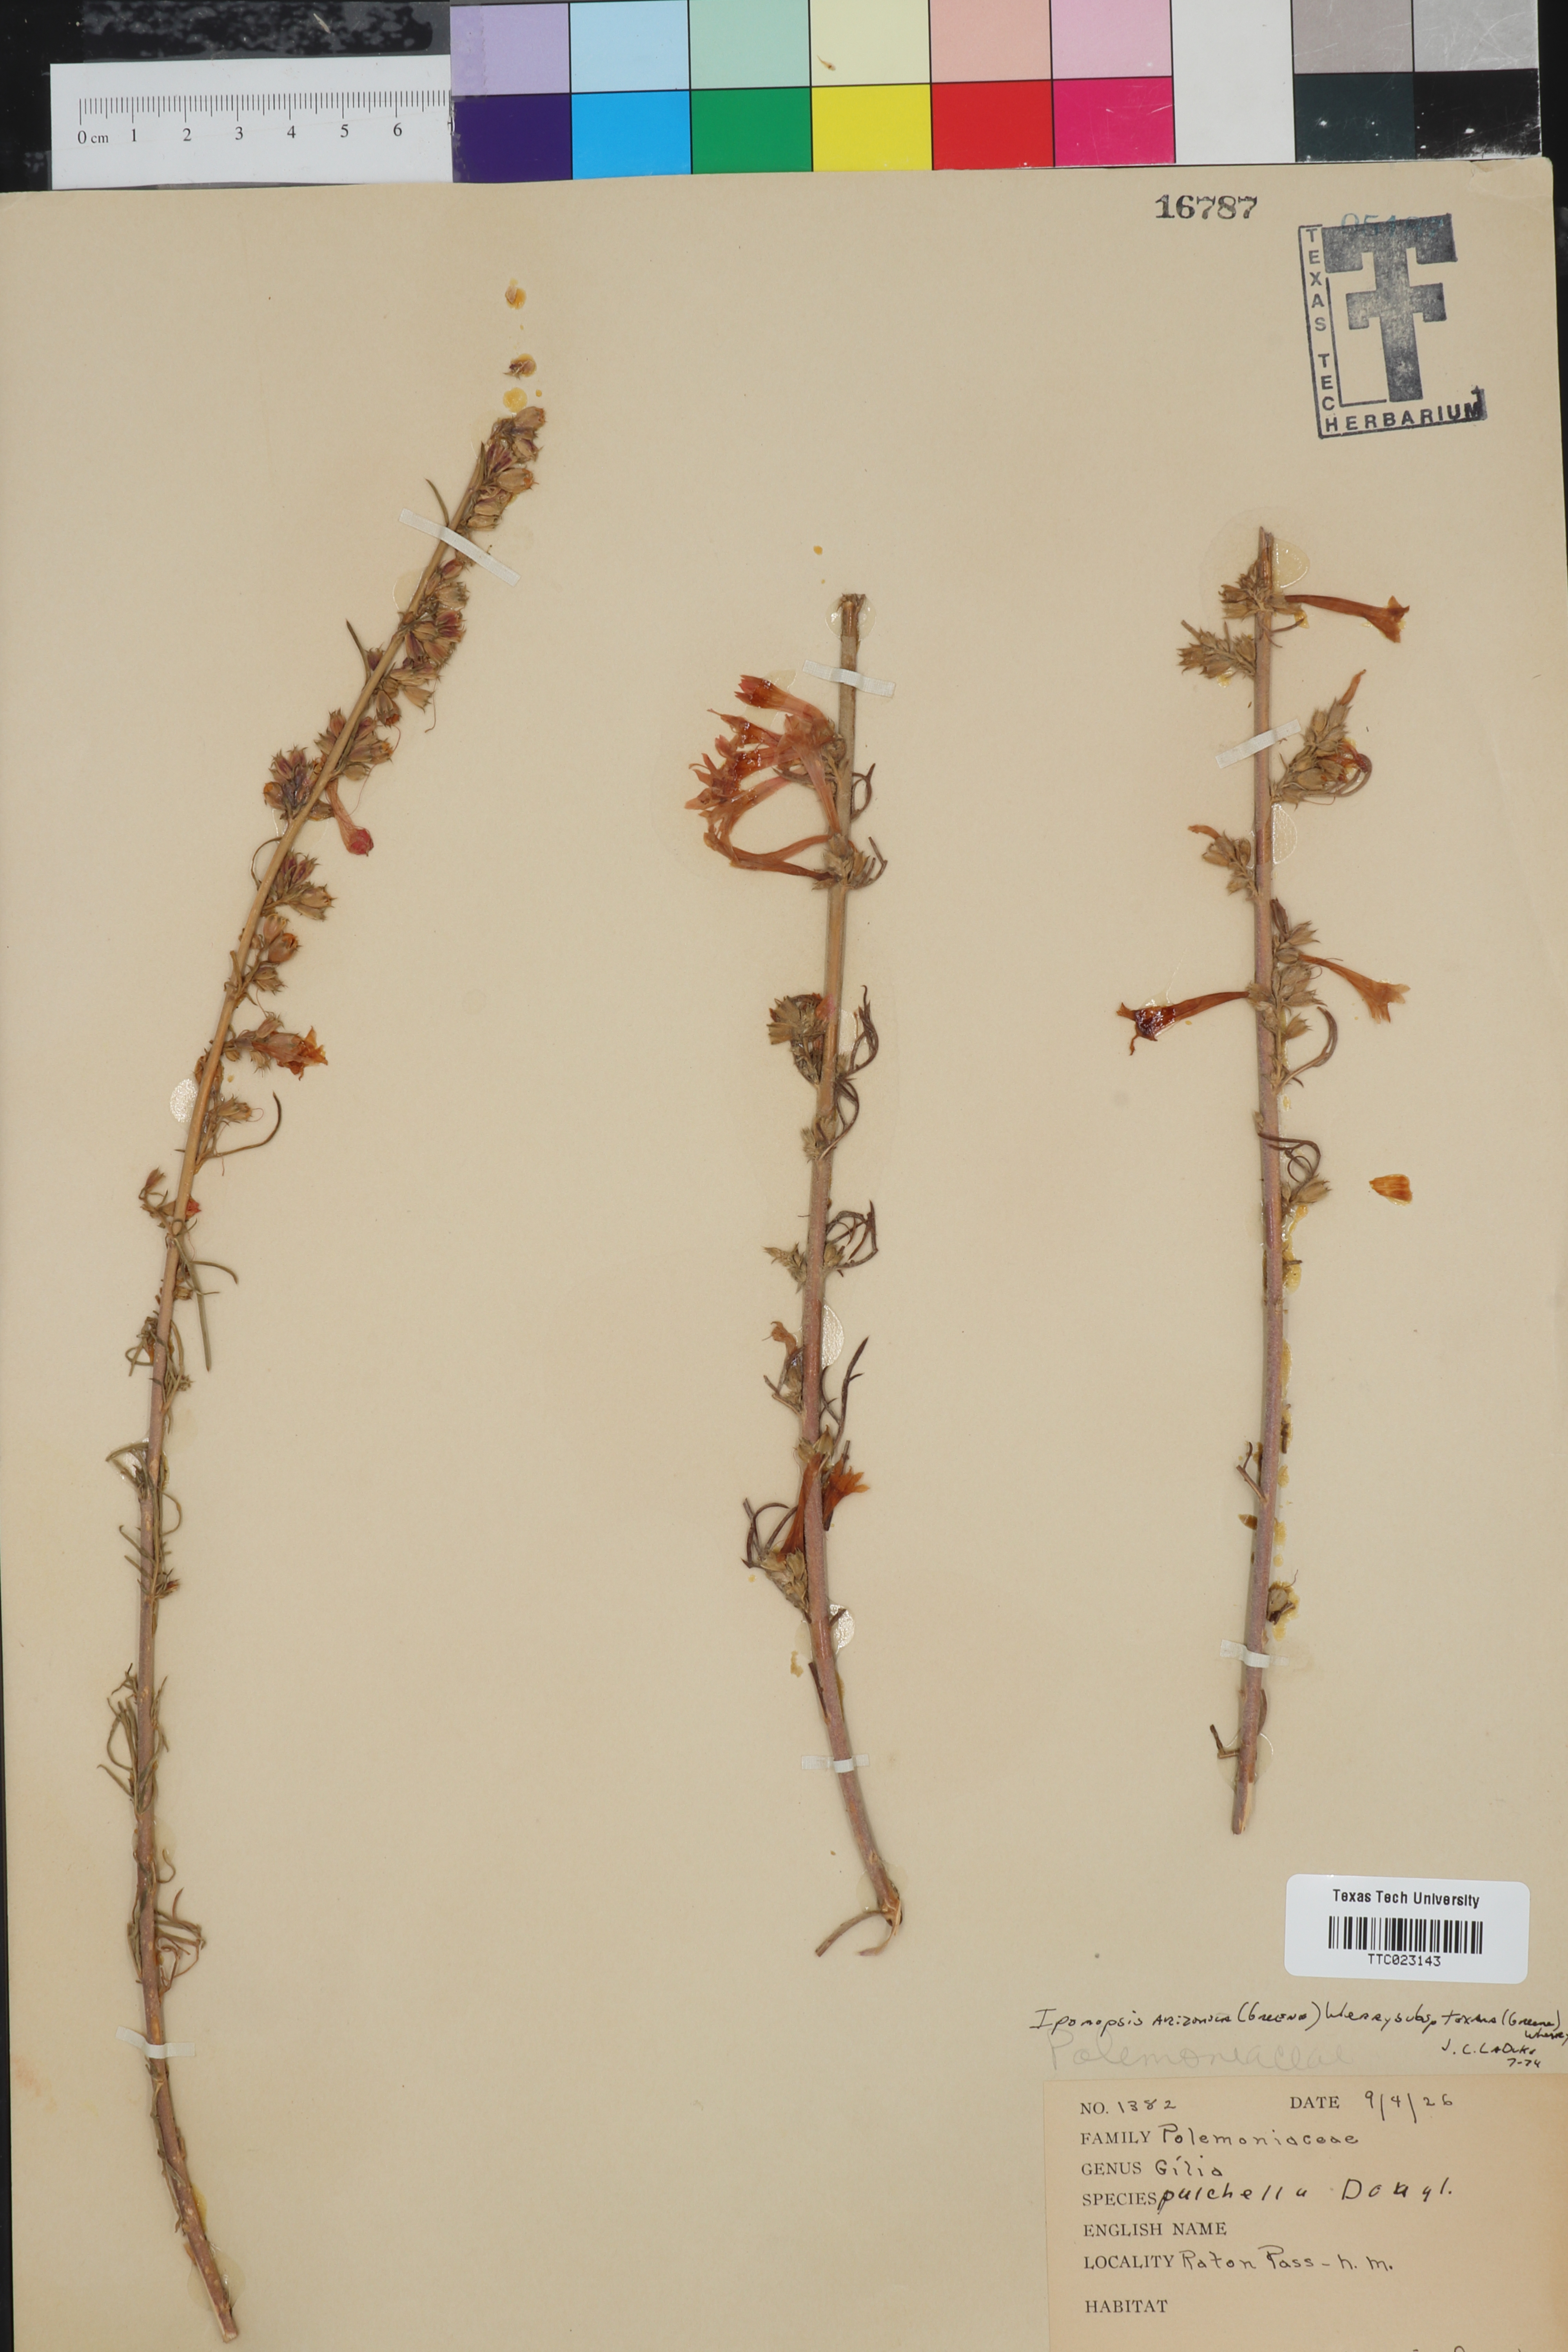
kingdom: Plantae
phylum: Tracheophyta
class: Magnoliopsida
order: Ericales
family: Polemoniaceae
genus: Ipomopsis
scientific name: Ipomopsis arizonica
